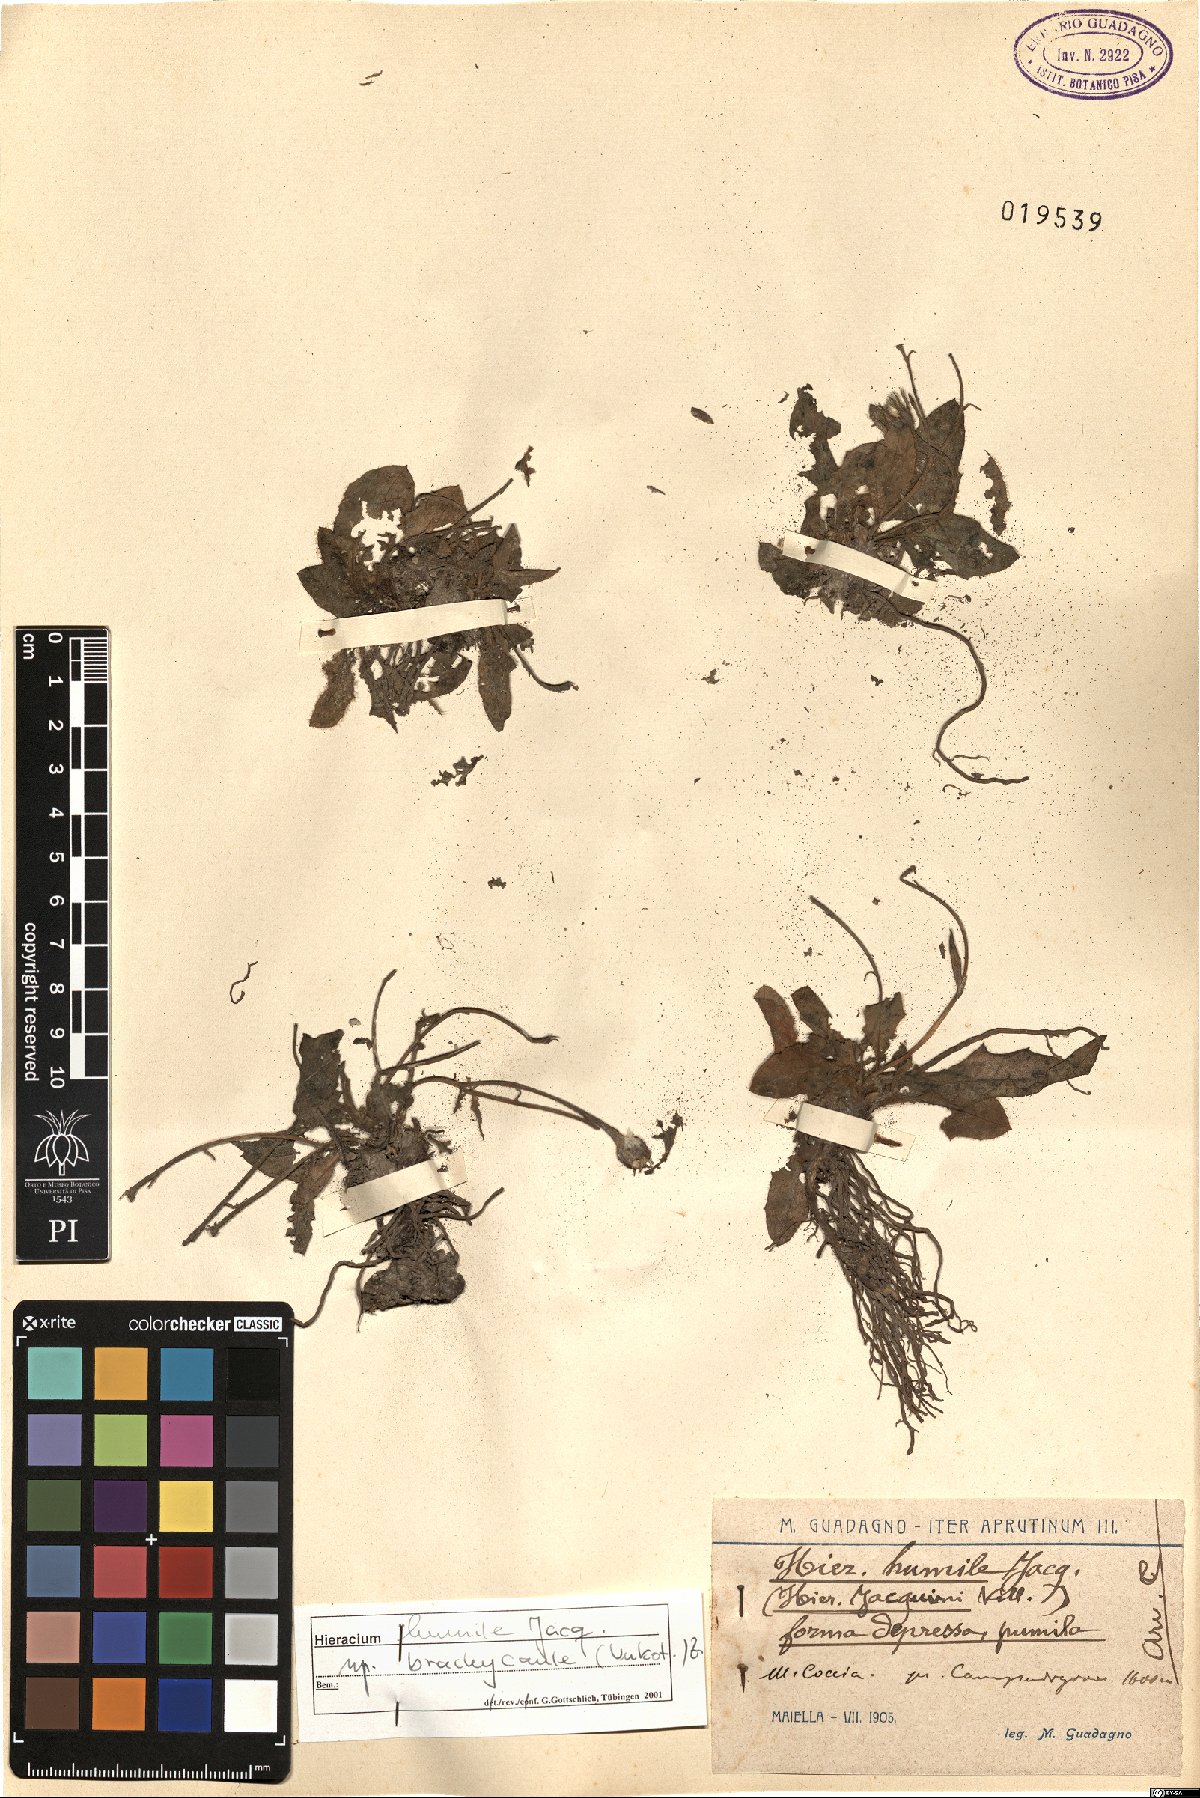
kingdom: Plantae
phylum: Tracheophyta
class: Magnoliopsida
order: Asterales
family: Asteraceae
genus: Hieracium
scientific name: Hieracium humile
